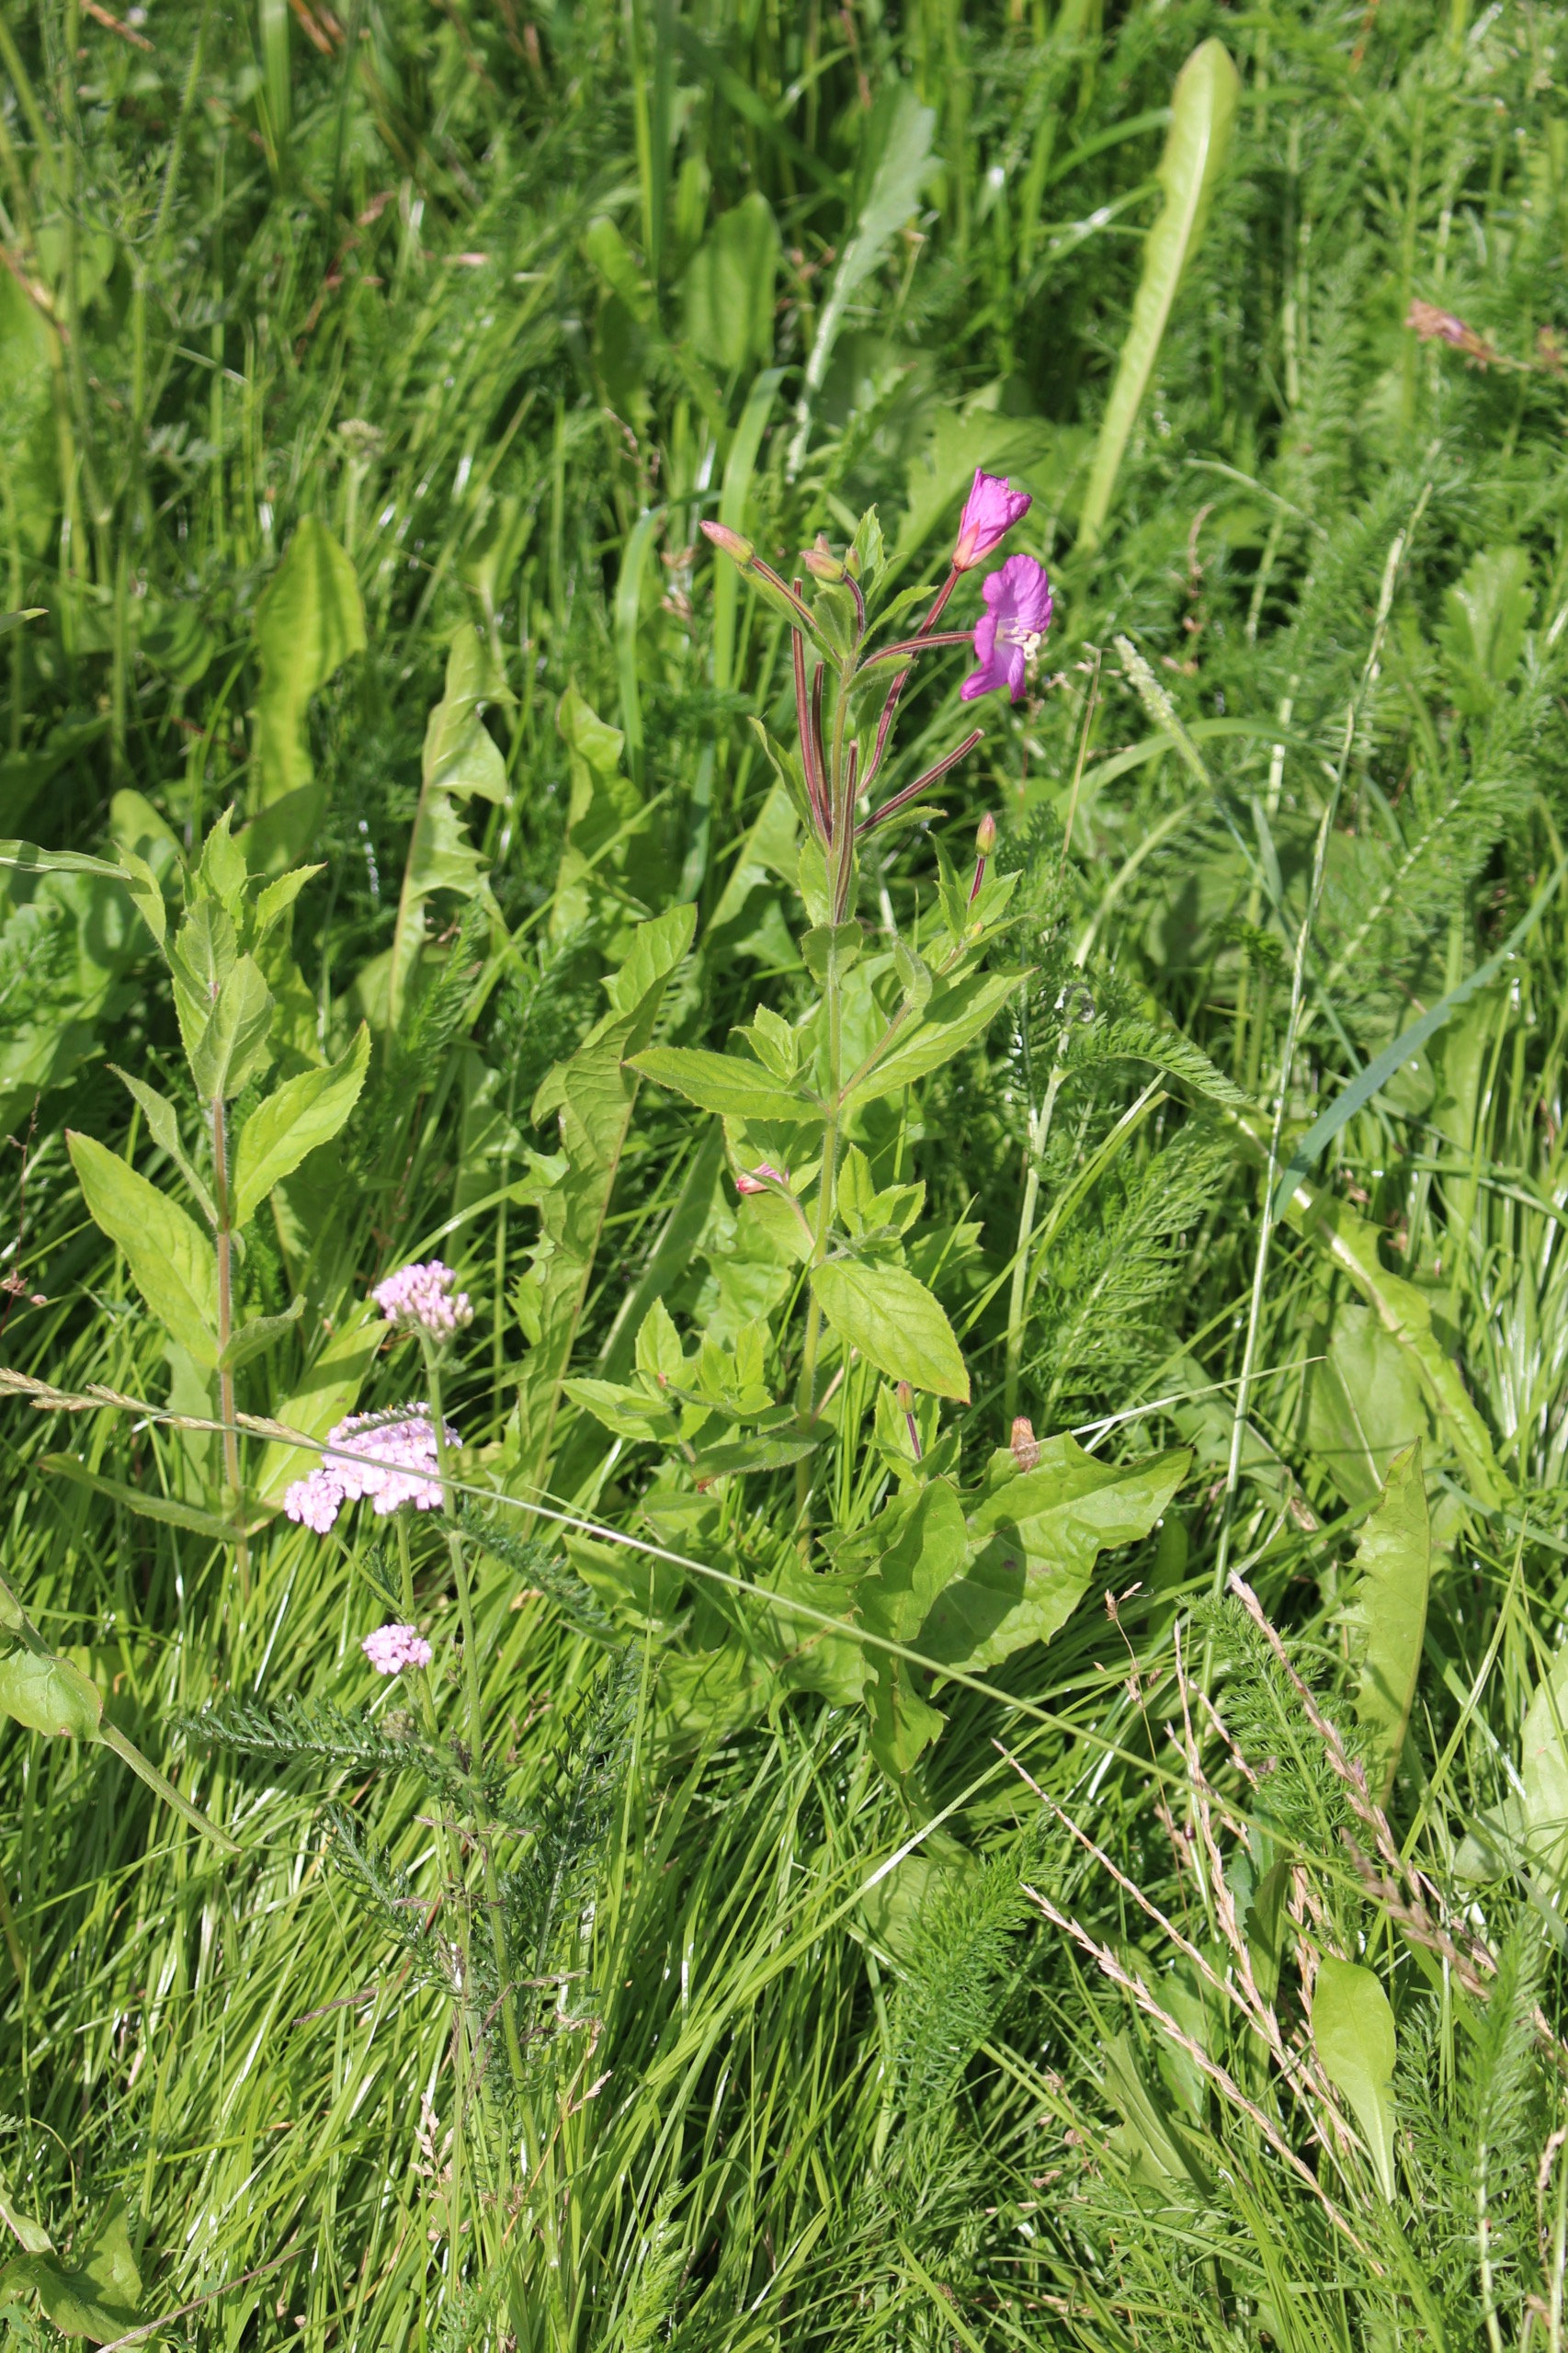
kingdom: Plantae
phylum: Tracheophyta
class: Magnoliopsida
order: Myrtales
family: Onagraceae
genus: Epilobium
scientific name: Epilobium hirsutum
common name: Lådden dueurt
